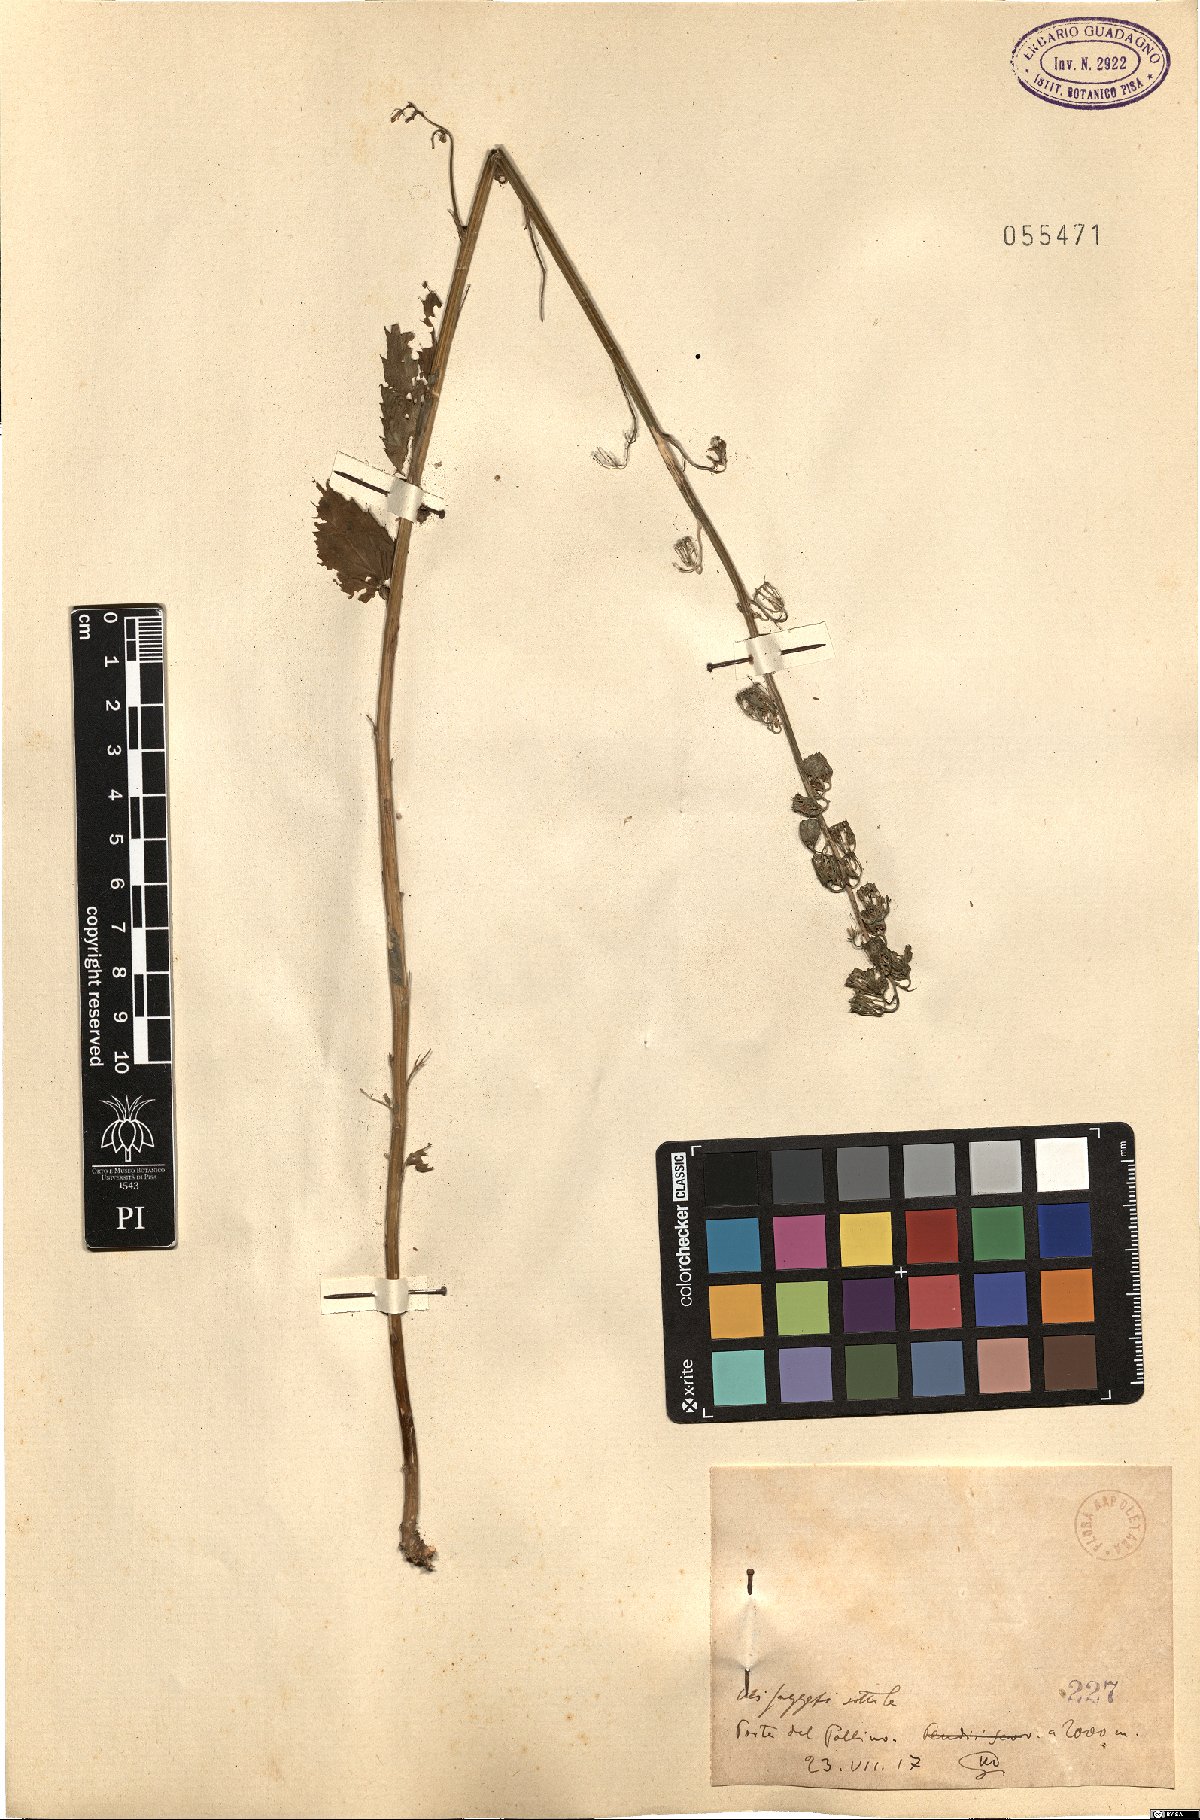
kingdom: Plantae
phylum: Tracheophyta
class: Magnoliopsida
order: Asterales
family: Campanulaceae
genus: Campanula
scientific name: Campanula
